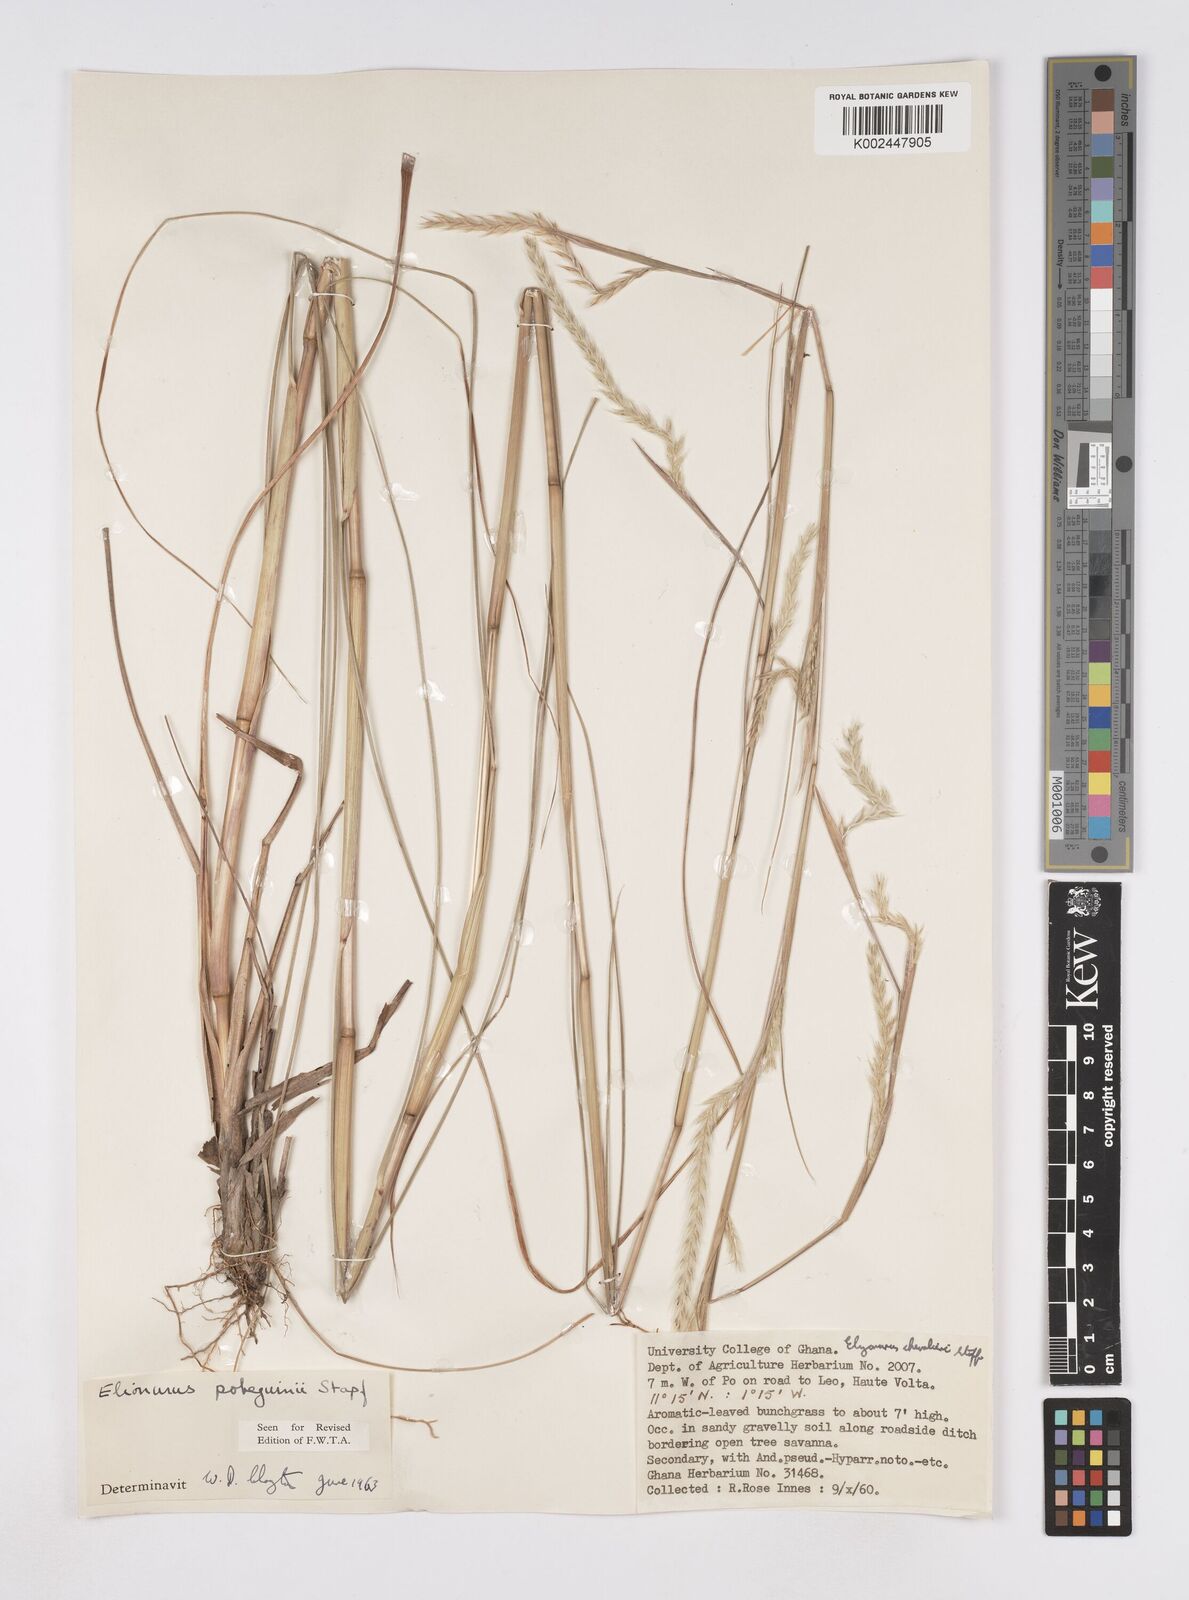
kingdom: Plantae
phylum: Tracheophyta
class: Liliopsida
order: Poales
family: Poaceae
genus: Elionurus
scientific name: Elionurus ciliaris
